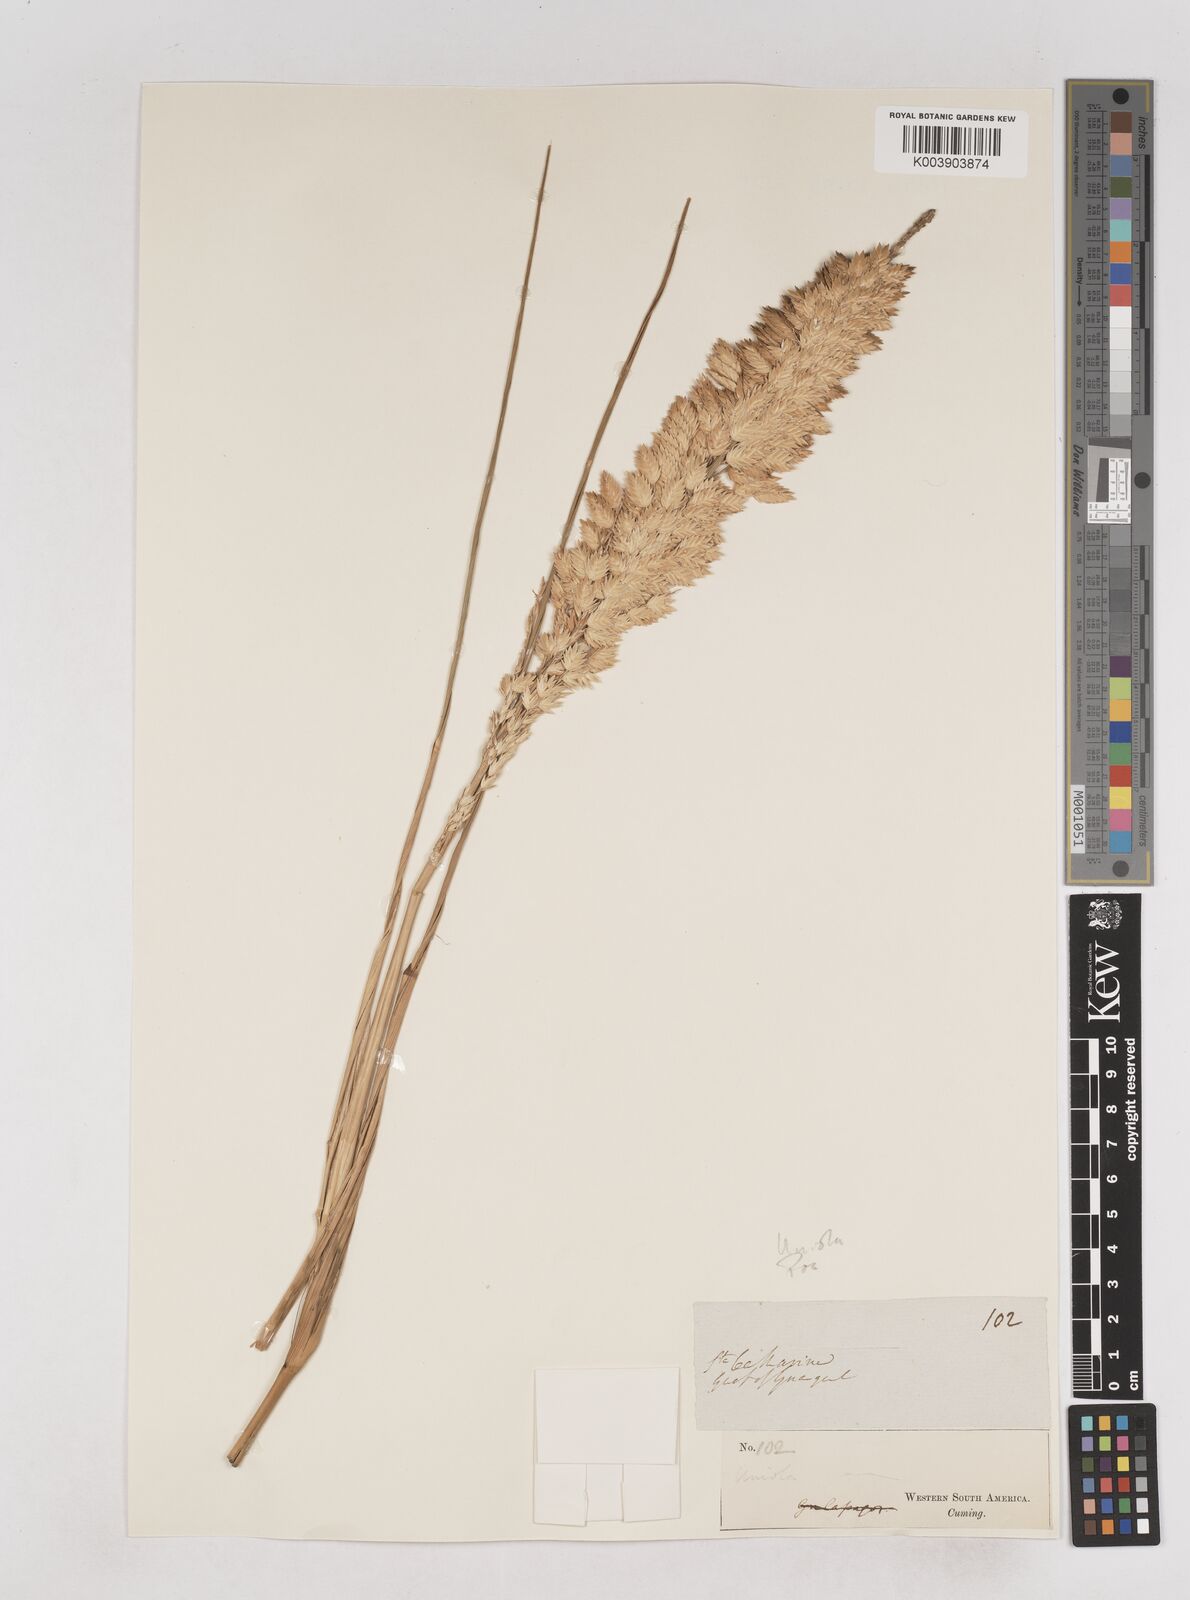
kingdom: Plantae
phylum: Tracheophyta
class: Liliopsida
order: Poales
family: Poaceae
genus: Uniola
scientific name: Uniola pittieri
